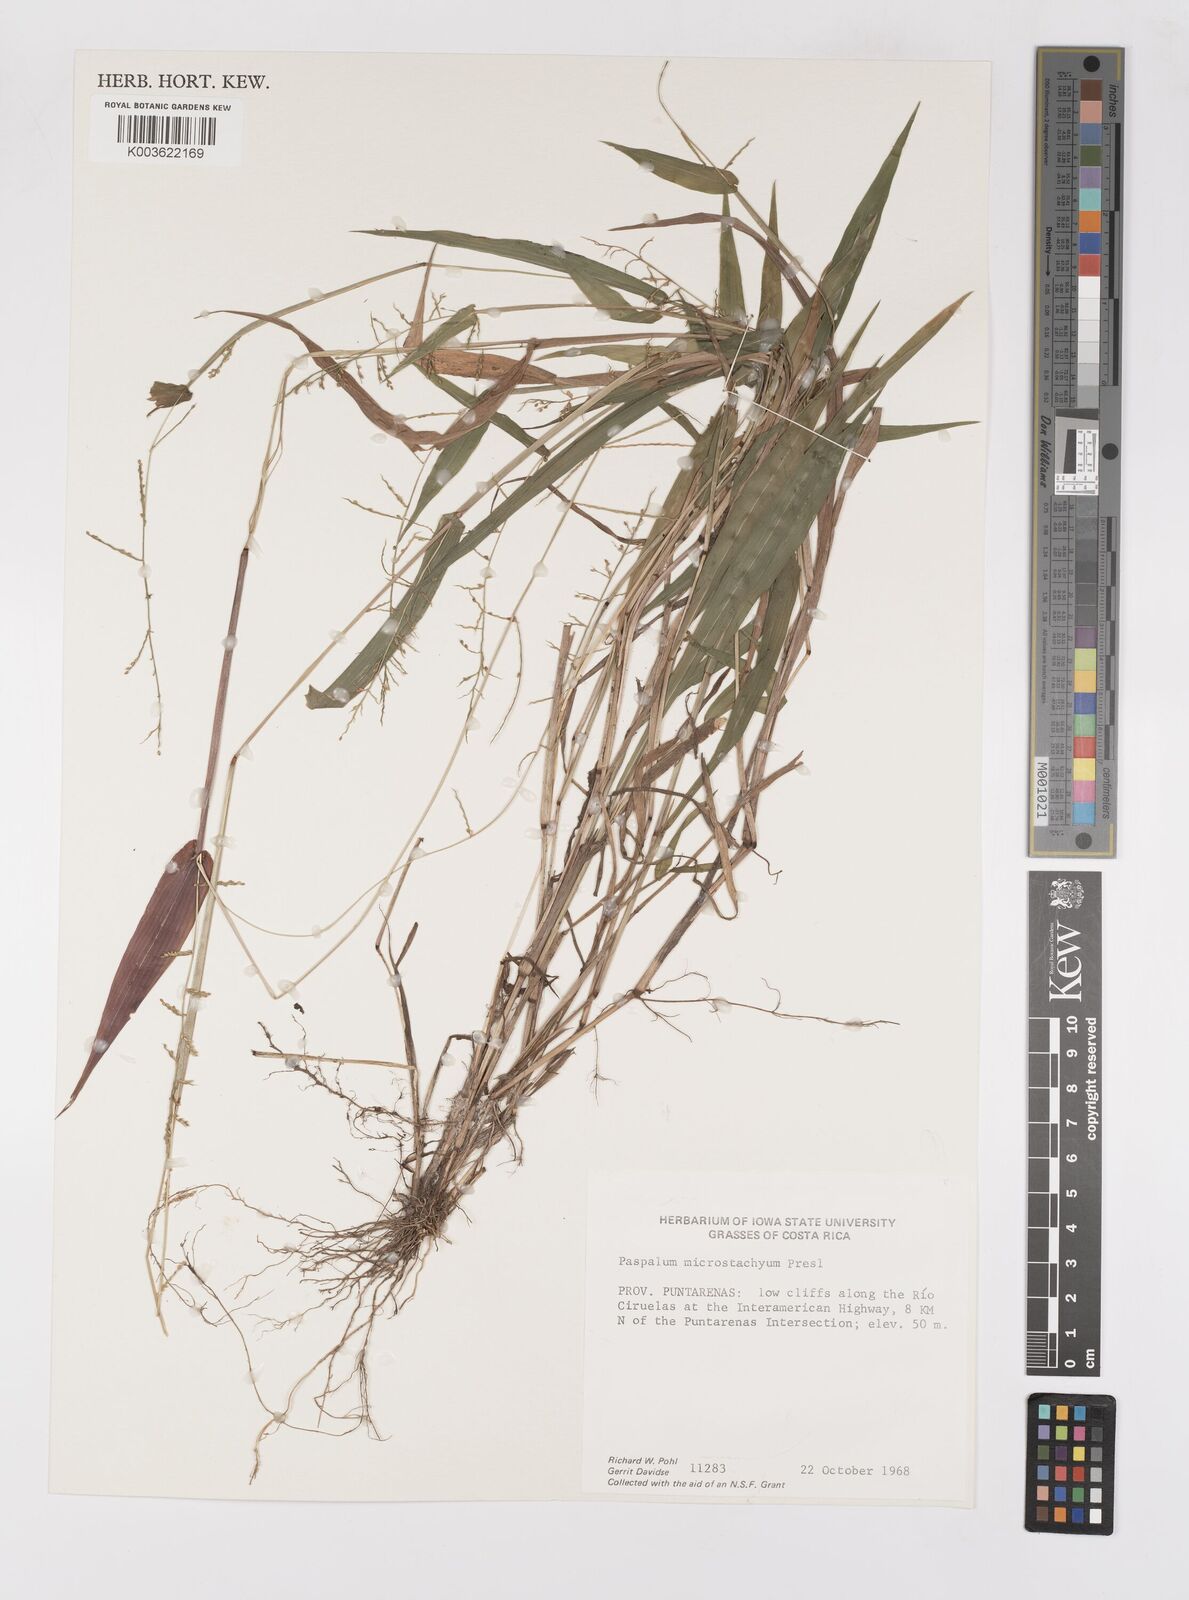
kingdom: Plantae
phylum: Tracheophyta
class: Liliopsida
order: Poales
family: Poaceae
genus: Paspalum
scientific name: Paspalum microstachyum
